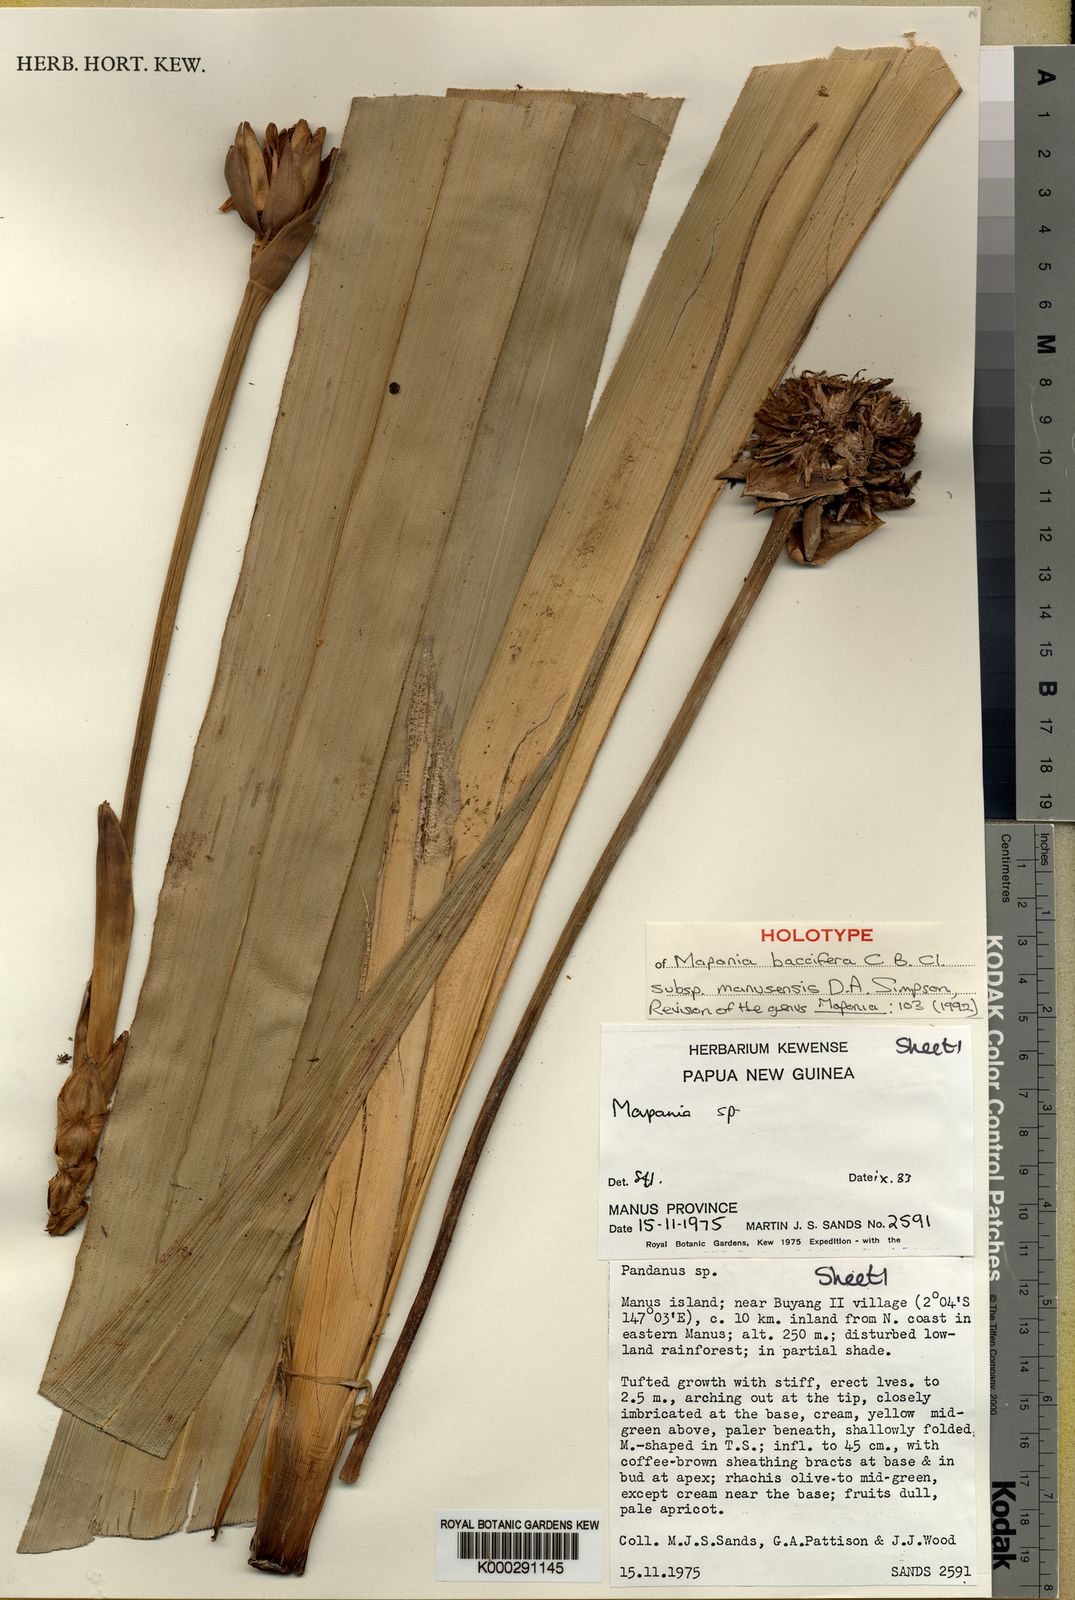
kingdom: Plantae
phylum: Tracheophyta
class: Liliopsida
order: Poales
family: Cyperaceae
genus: Mapania
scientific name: Mapania baccifera
